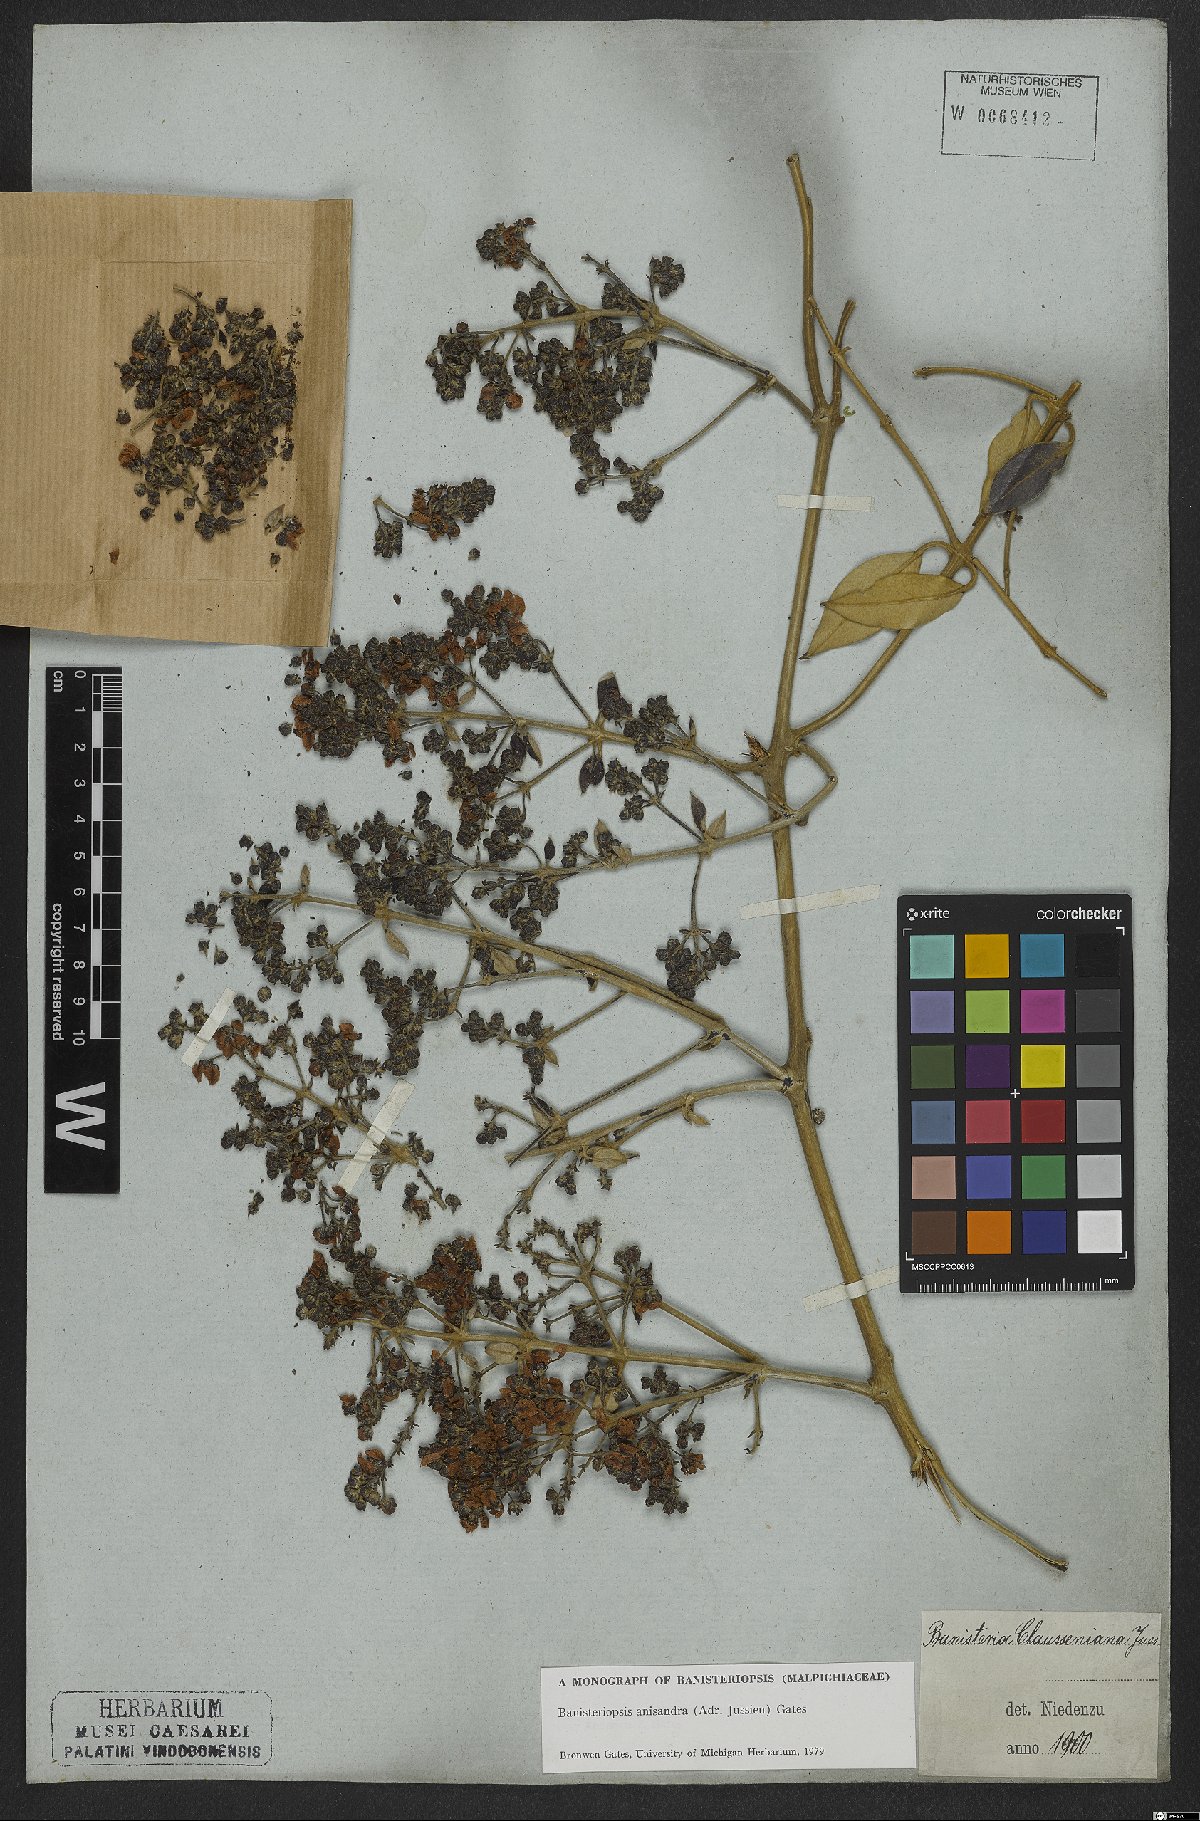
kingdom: Plantae
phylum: Tracheophyta
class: Magnoliopsida
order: Malpighiales
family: Malpighiaceae
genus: Banisteriopsis
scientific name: Banisteriopsis anisandra
